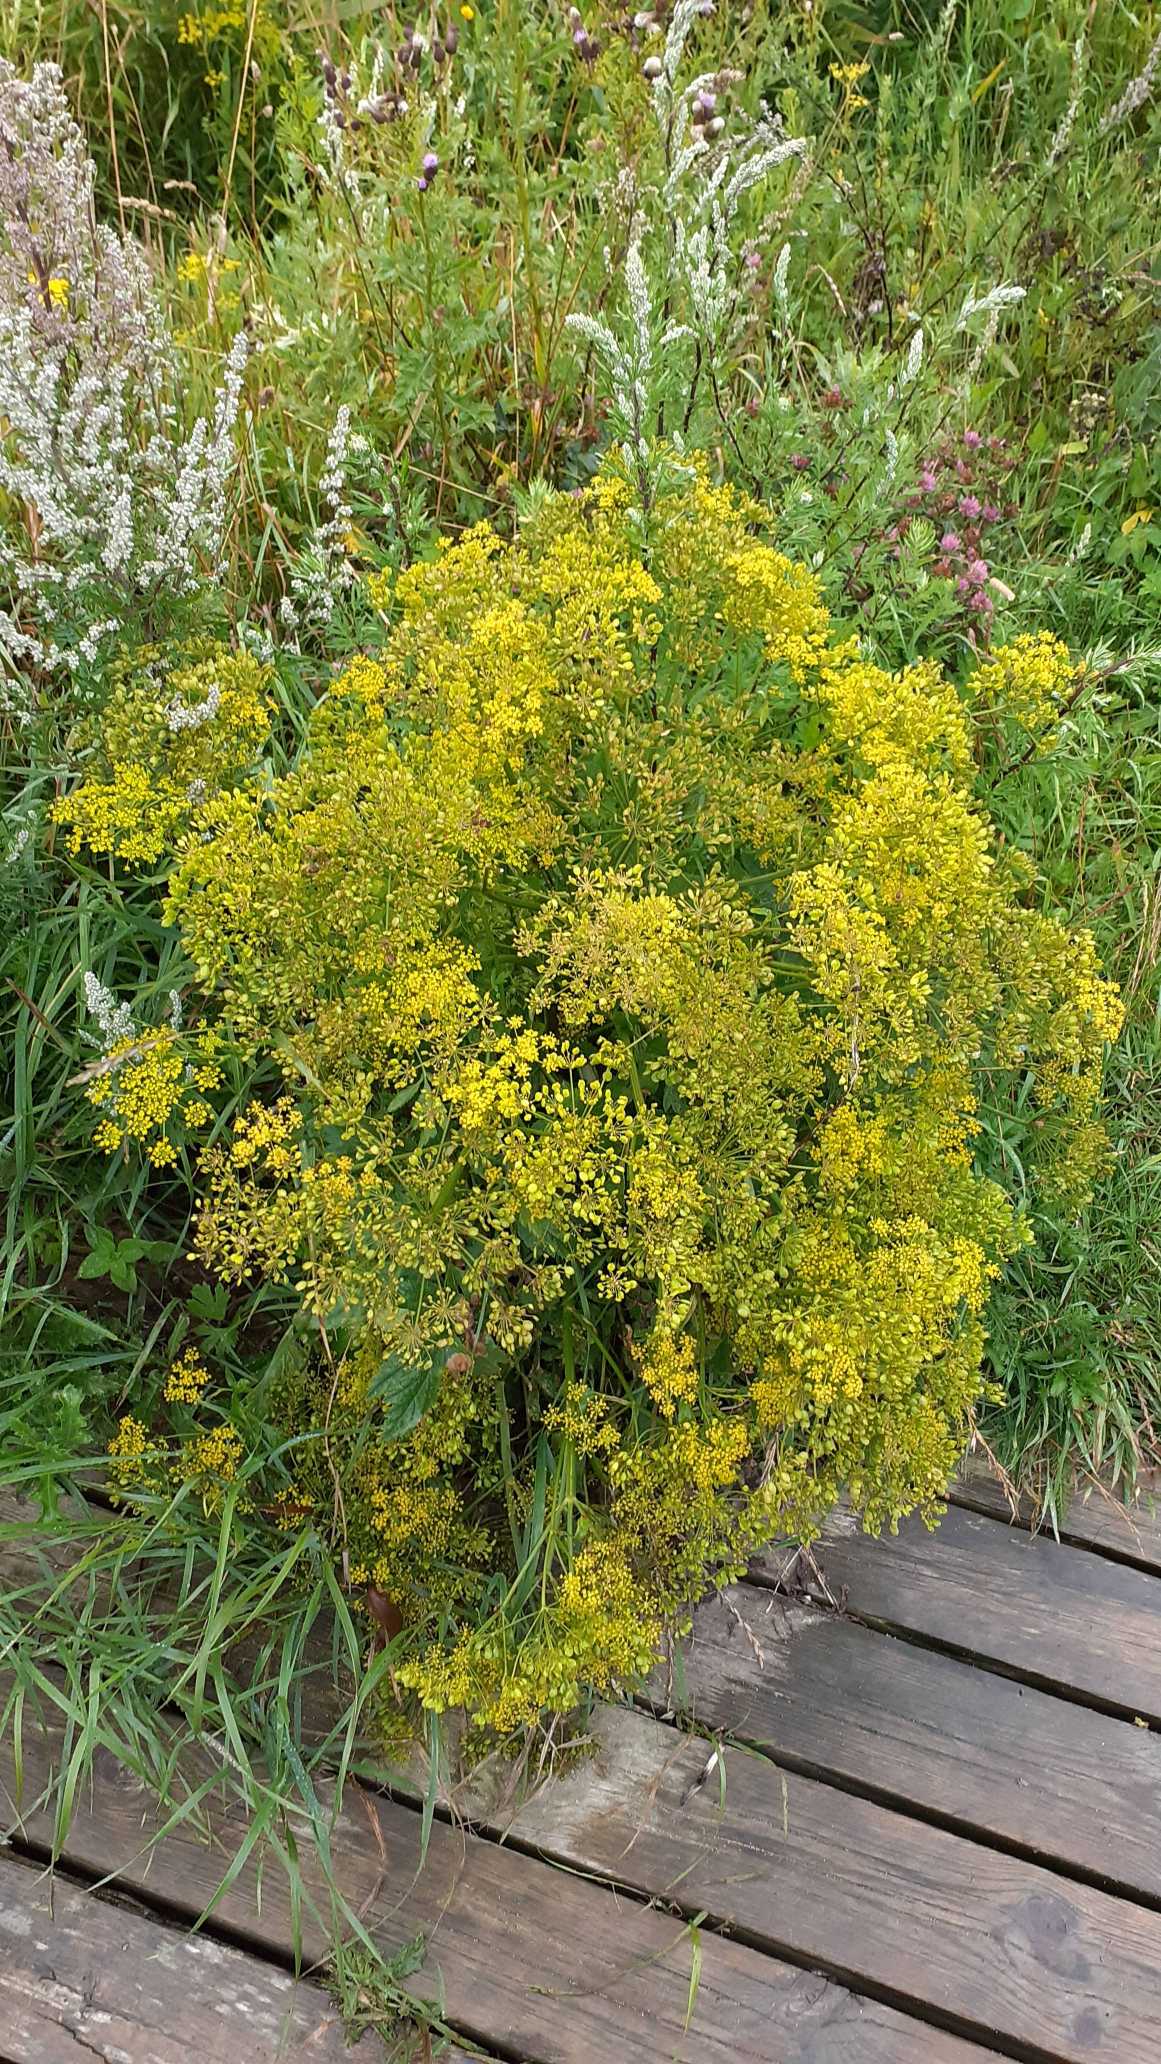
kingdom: Plantae
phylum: Tracheophyta
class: Magnoliopsida
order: Apiales
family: Apiaceae
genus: Pastinaca
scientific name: Pastinaca sativa
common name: Pastinak
